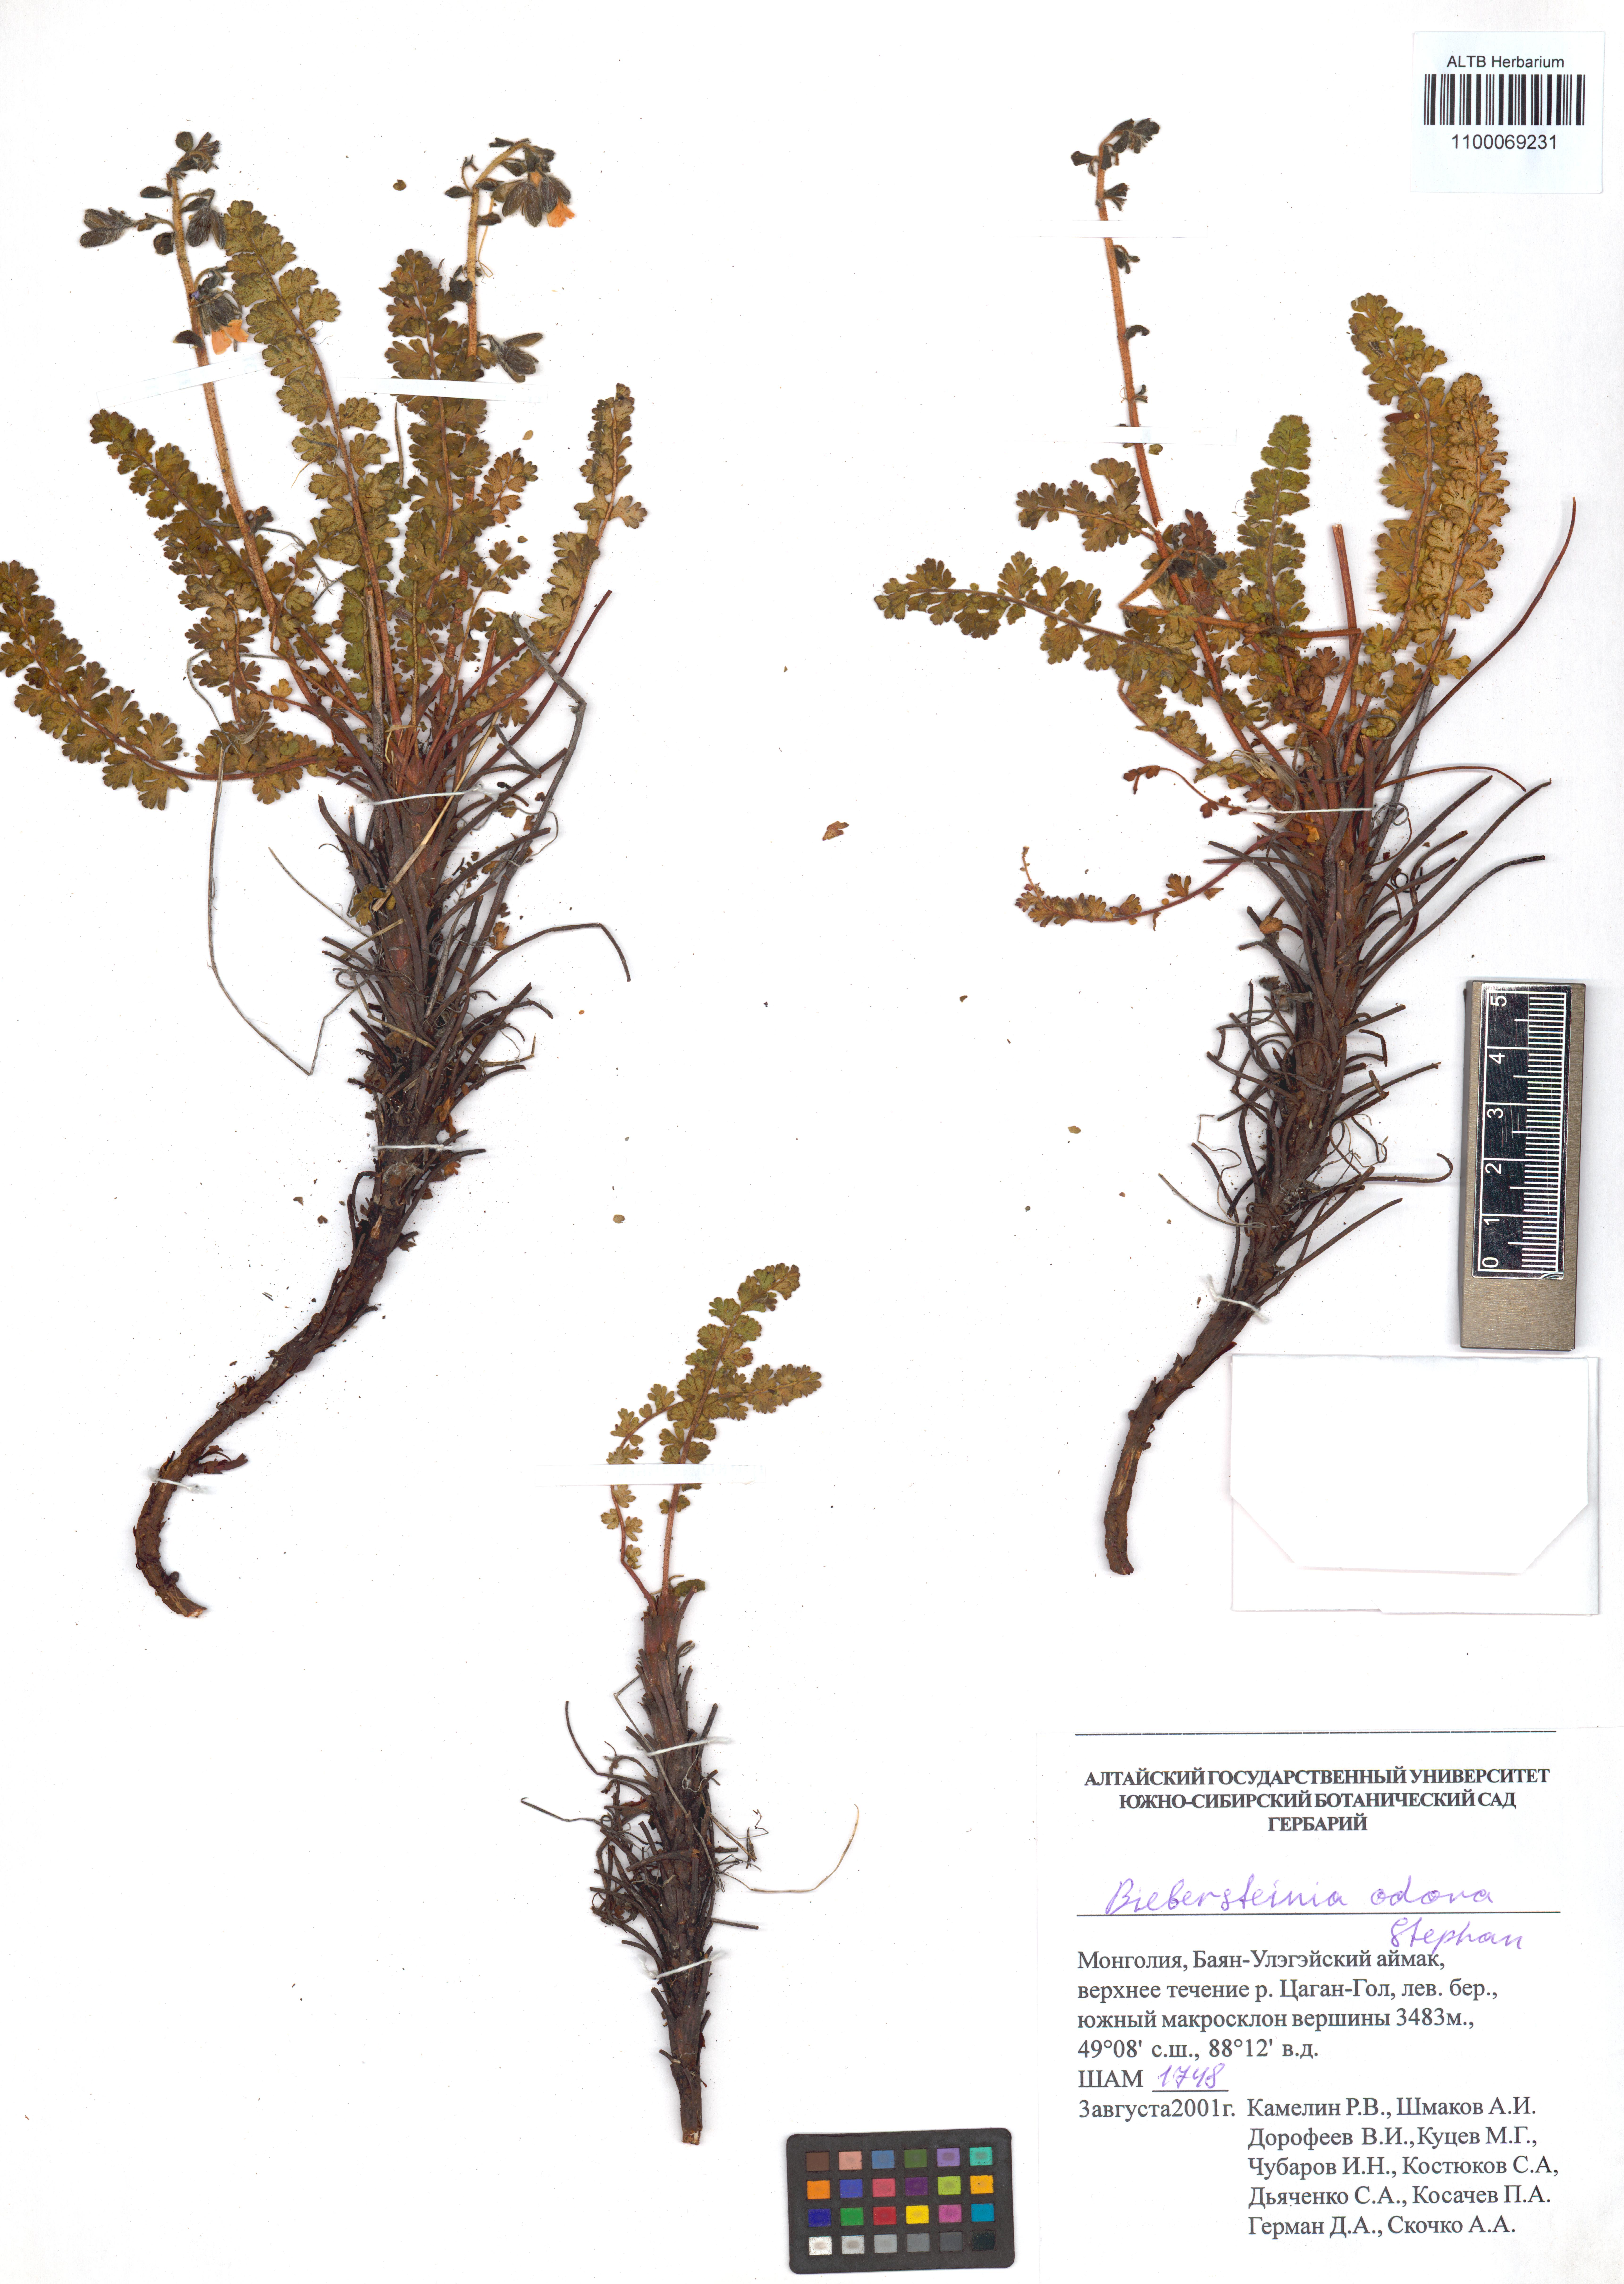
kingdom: Plantae
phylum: Tracheophyta
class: Magnoliopsida
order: Sapindales
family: Biebersteiniaceae
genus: Biebersteinia
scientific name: Biebersteinia odora
